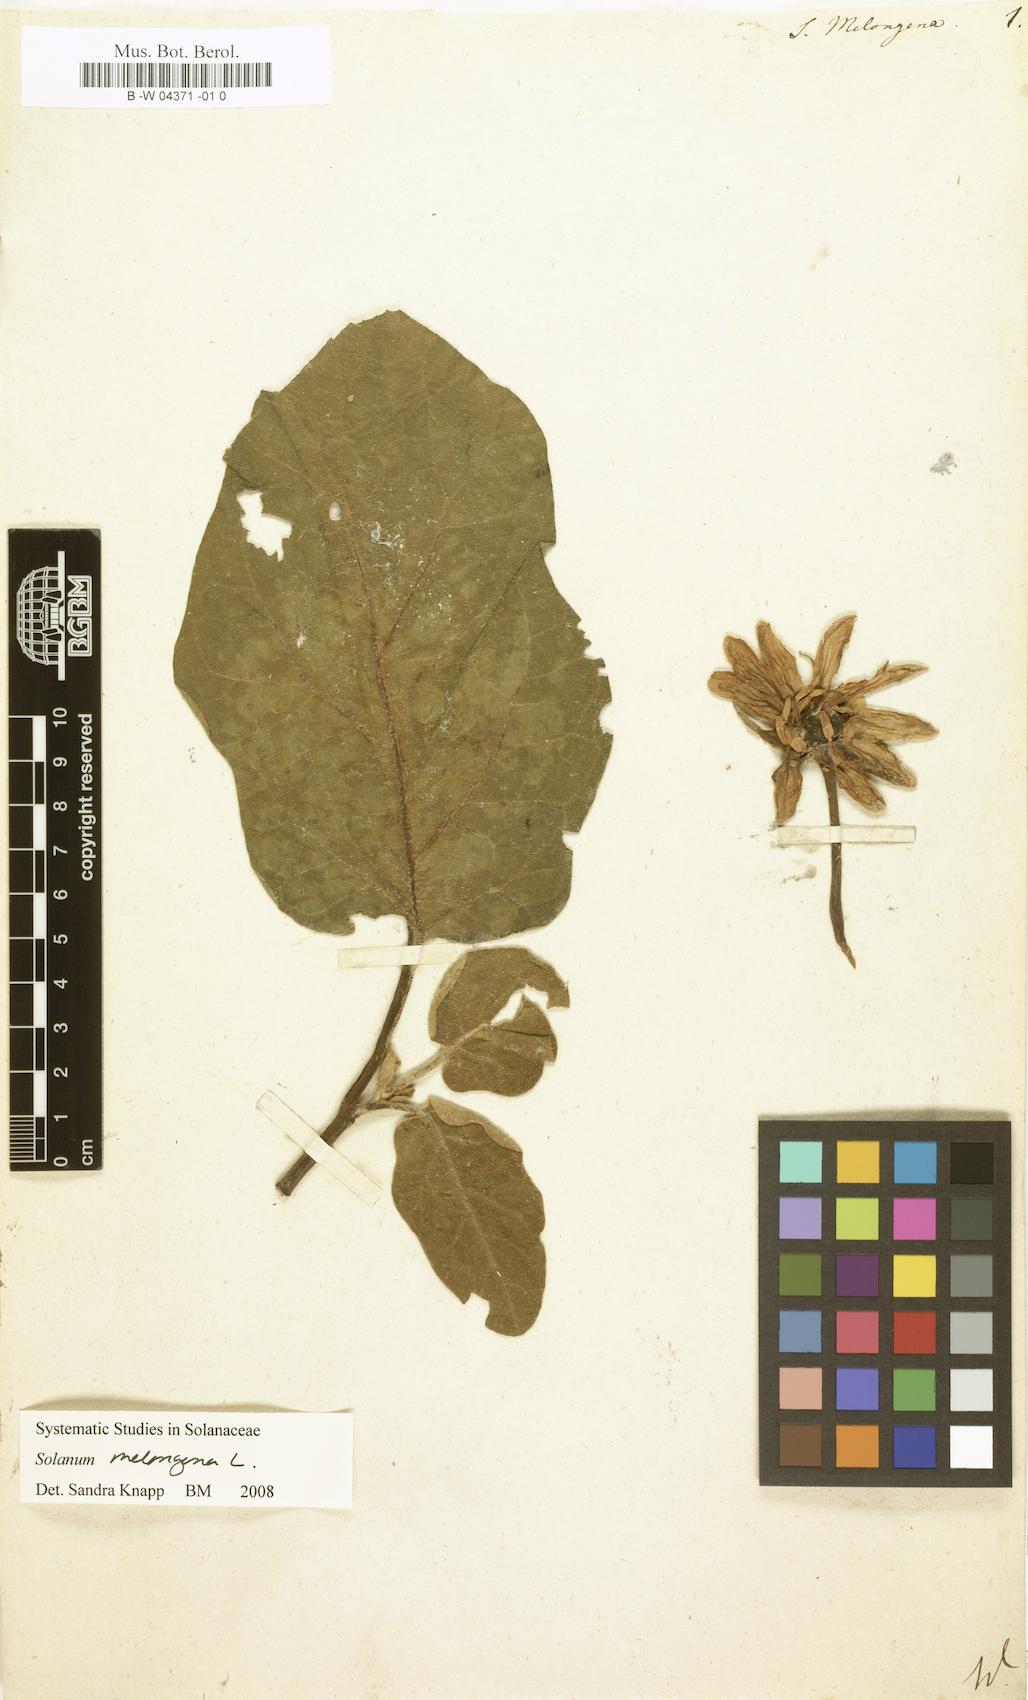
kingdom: Plantae
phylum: Tracheophyta
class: Magnoliopsida
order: Solanales
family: Solanaceae
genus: Solanum
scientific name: Solanum melongena
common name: Eggplant
